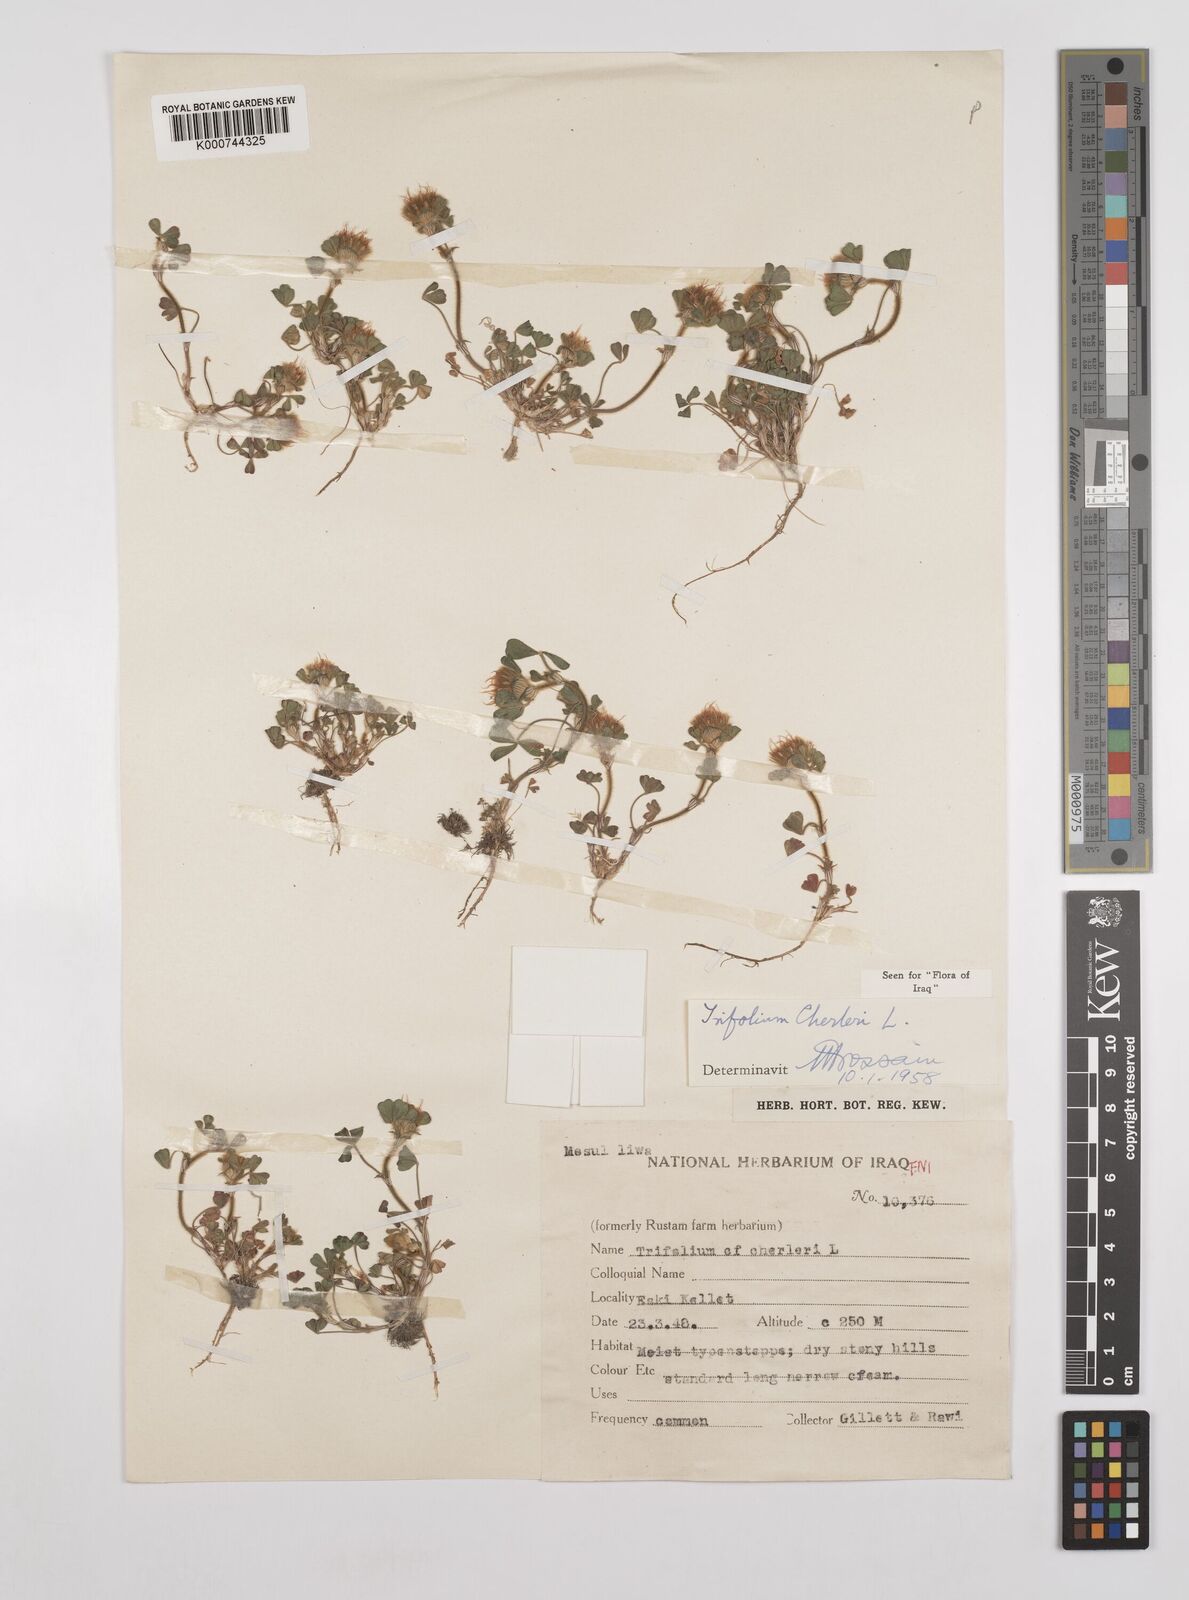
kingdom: Plantae
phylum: Tracheophyta
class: Magnoliopsida
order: Fabales
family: Fabaceae
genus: Trifolium
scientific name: Trifolium cherleri
